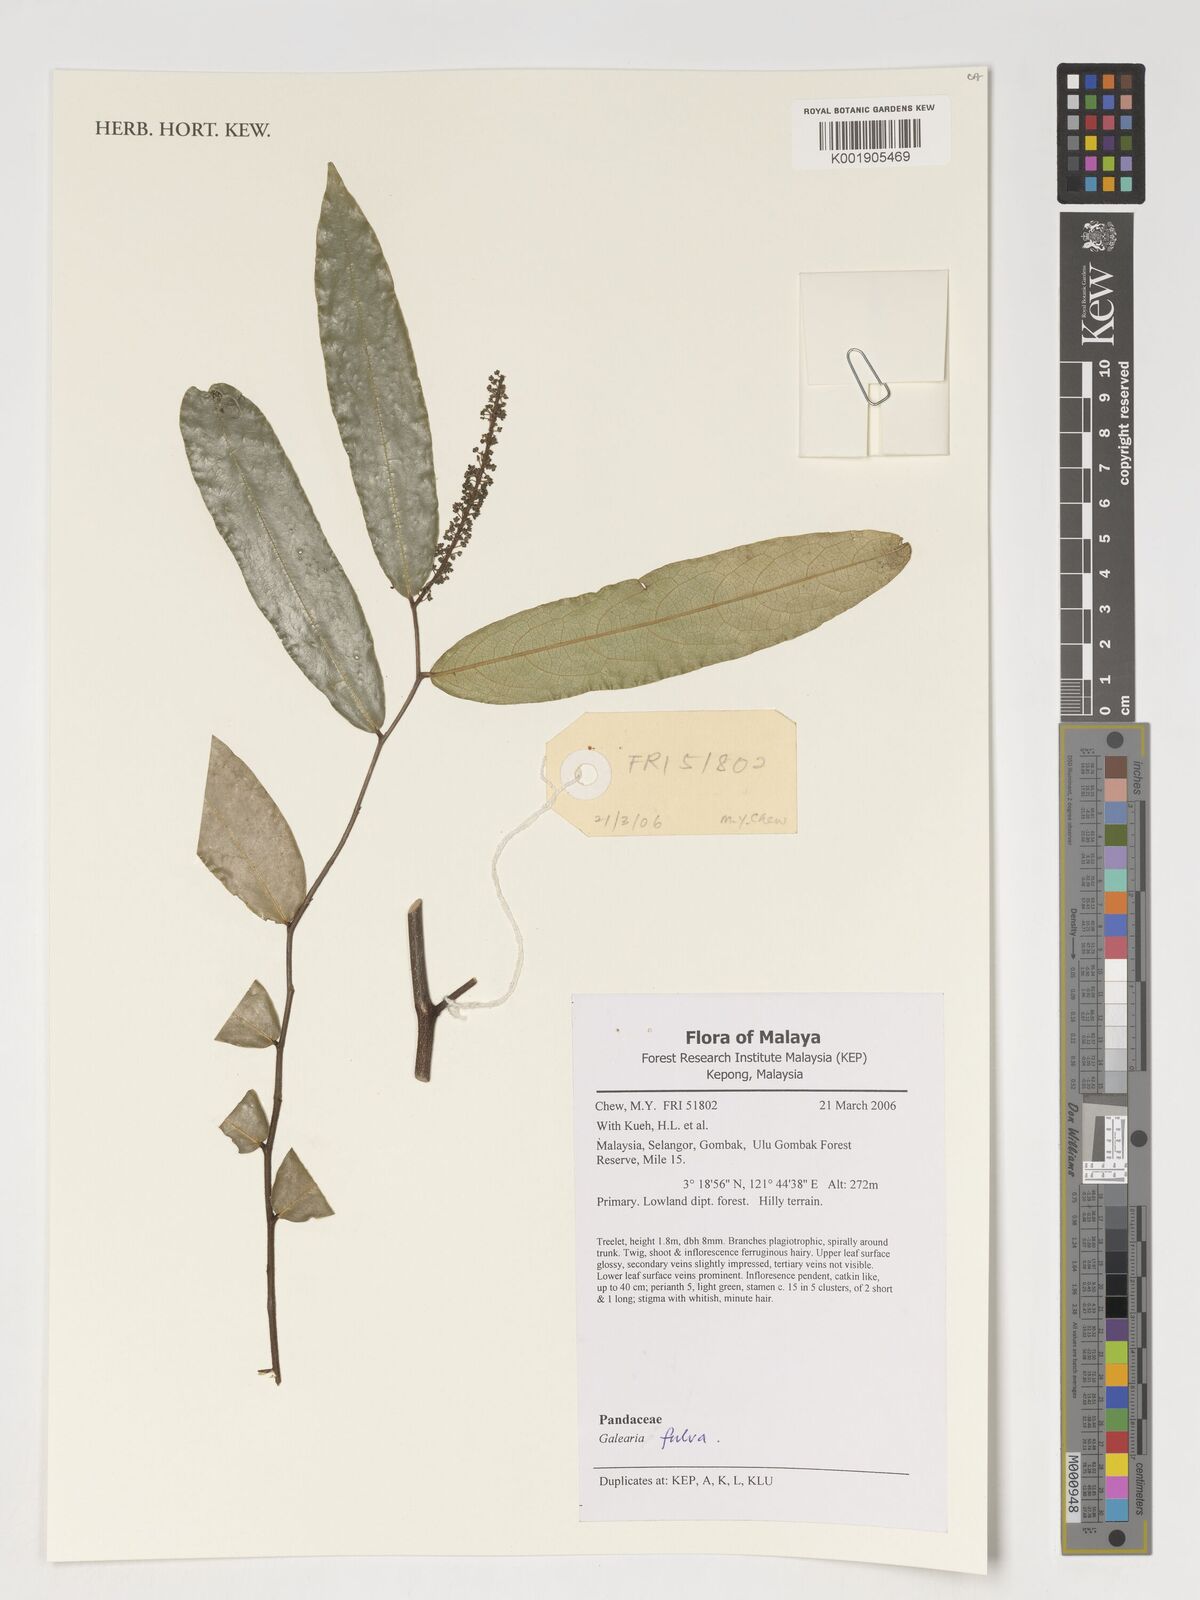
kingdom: Plantae
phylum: Tracheophyta
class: Magnoliopsida
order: Malpighiales
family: Pandaceae
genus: Galearia
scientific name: Galearia fulva
